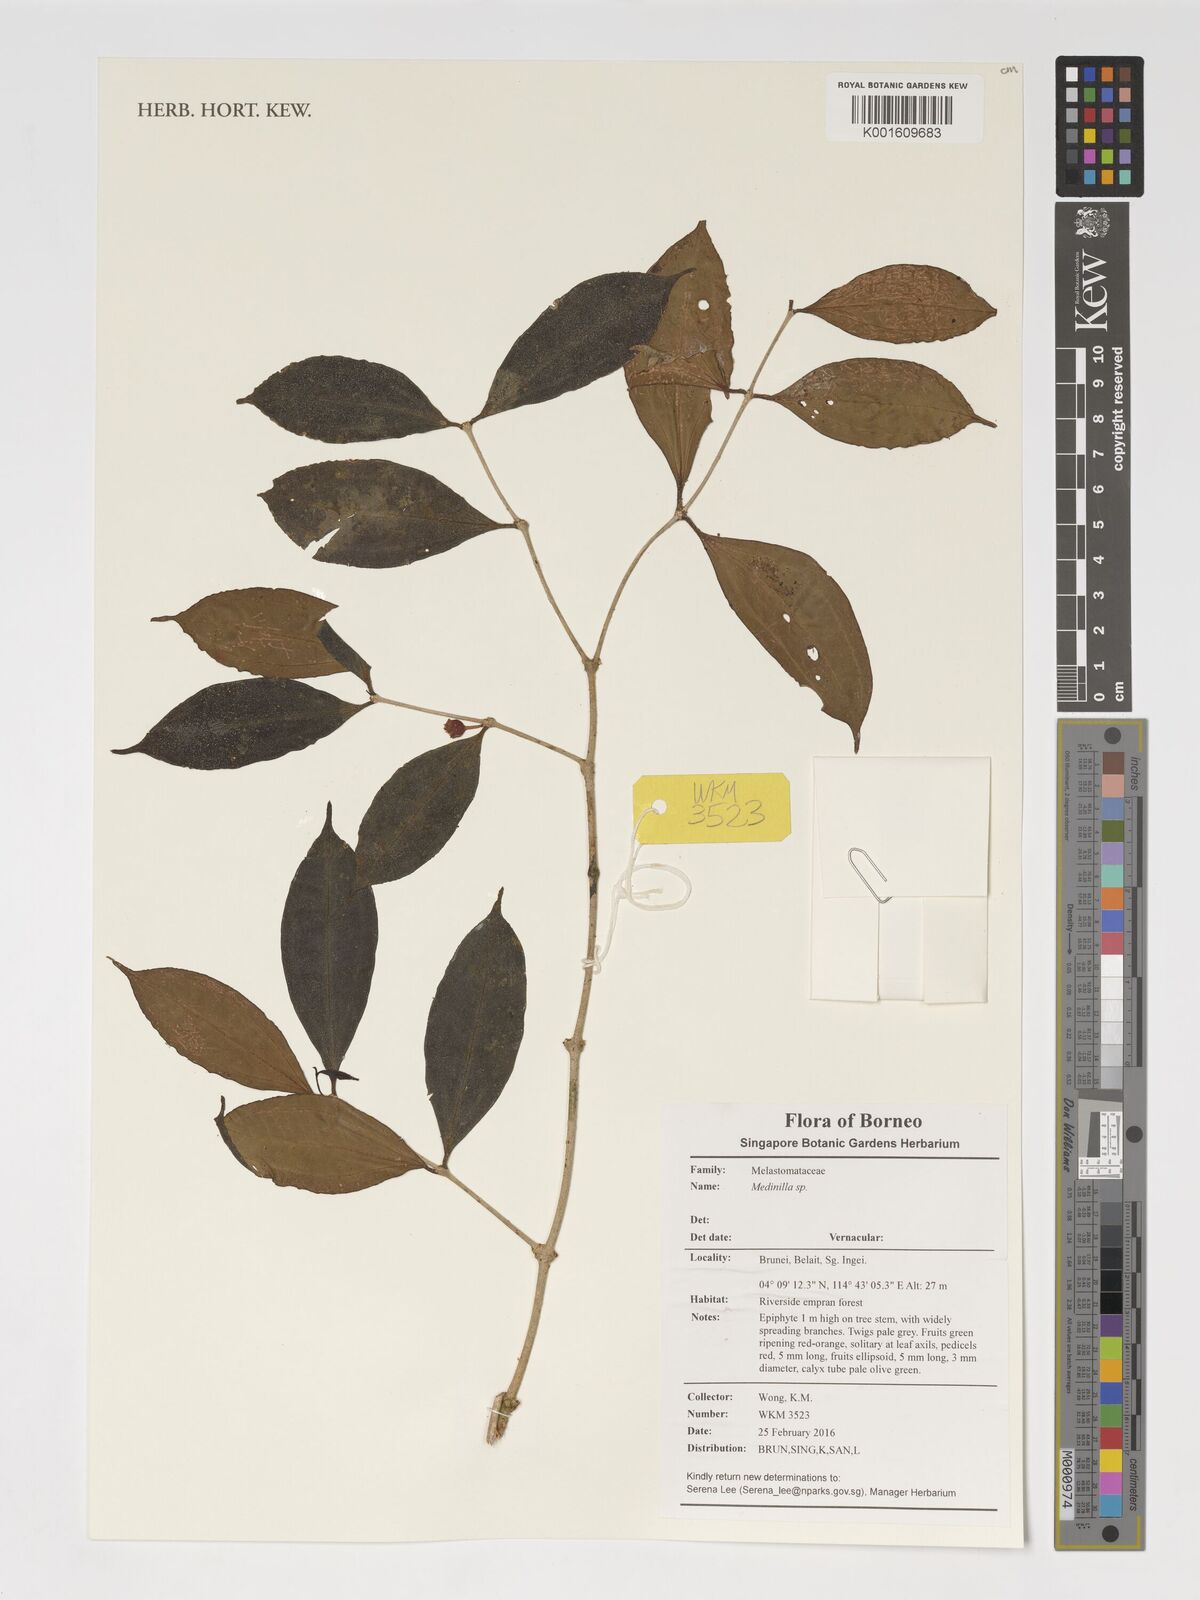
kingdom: Plantae
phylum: Tracheophyta
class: Magnoliopsida
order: Myrtales
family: Melastomataceae
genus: Medinilla
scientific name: Medinilla
